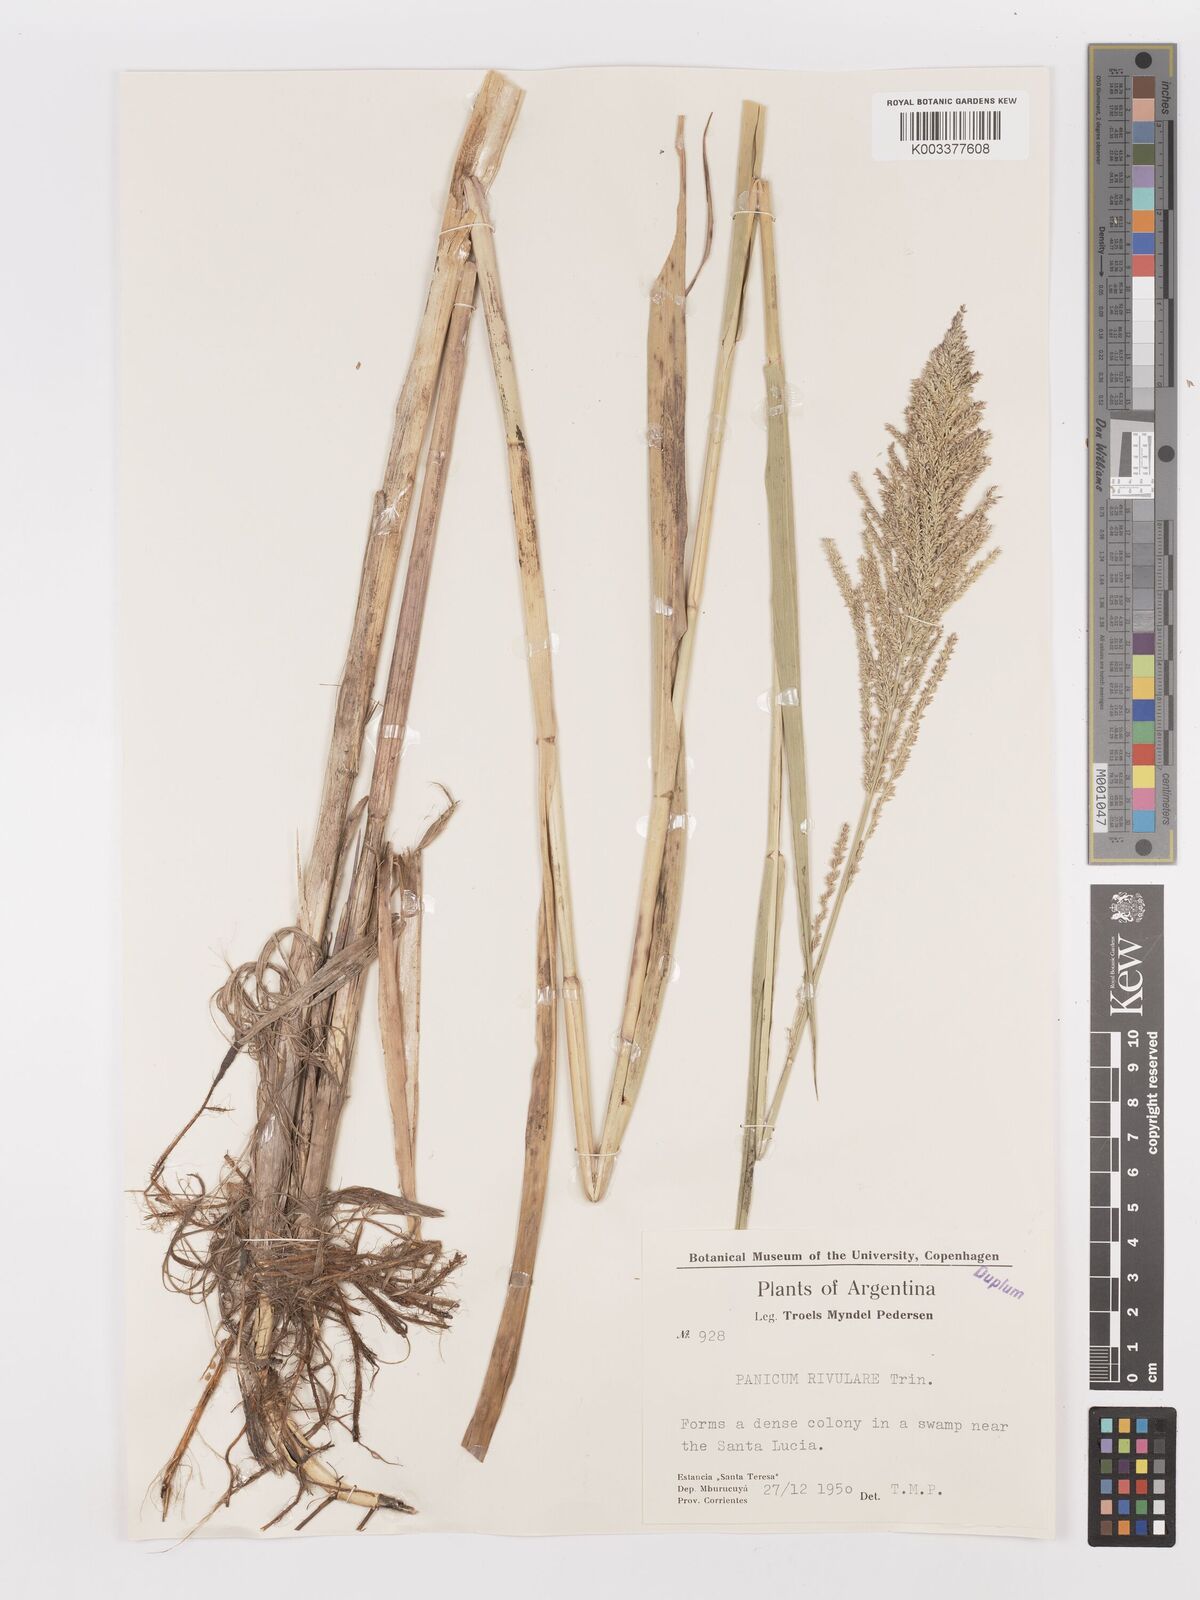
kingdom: Plantae
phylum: Tracheophyta
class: Liliopsida
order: Poales
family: Poaceae
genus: Hymenachne
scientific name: Hymenachne pernambucensis
